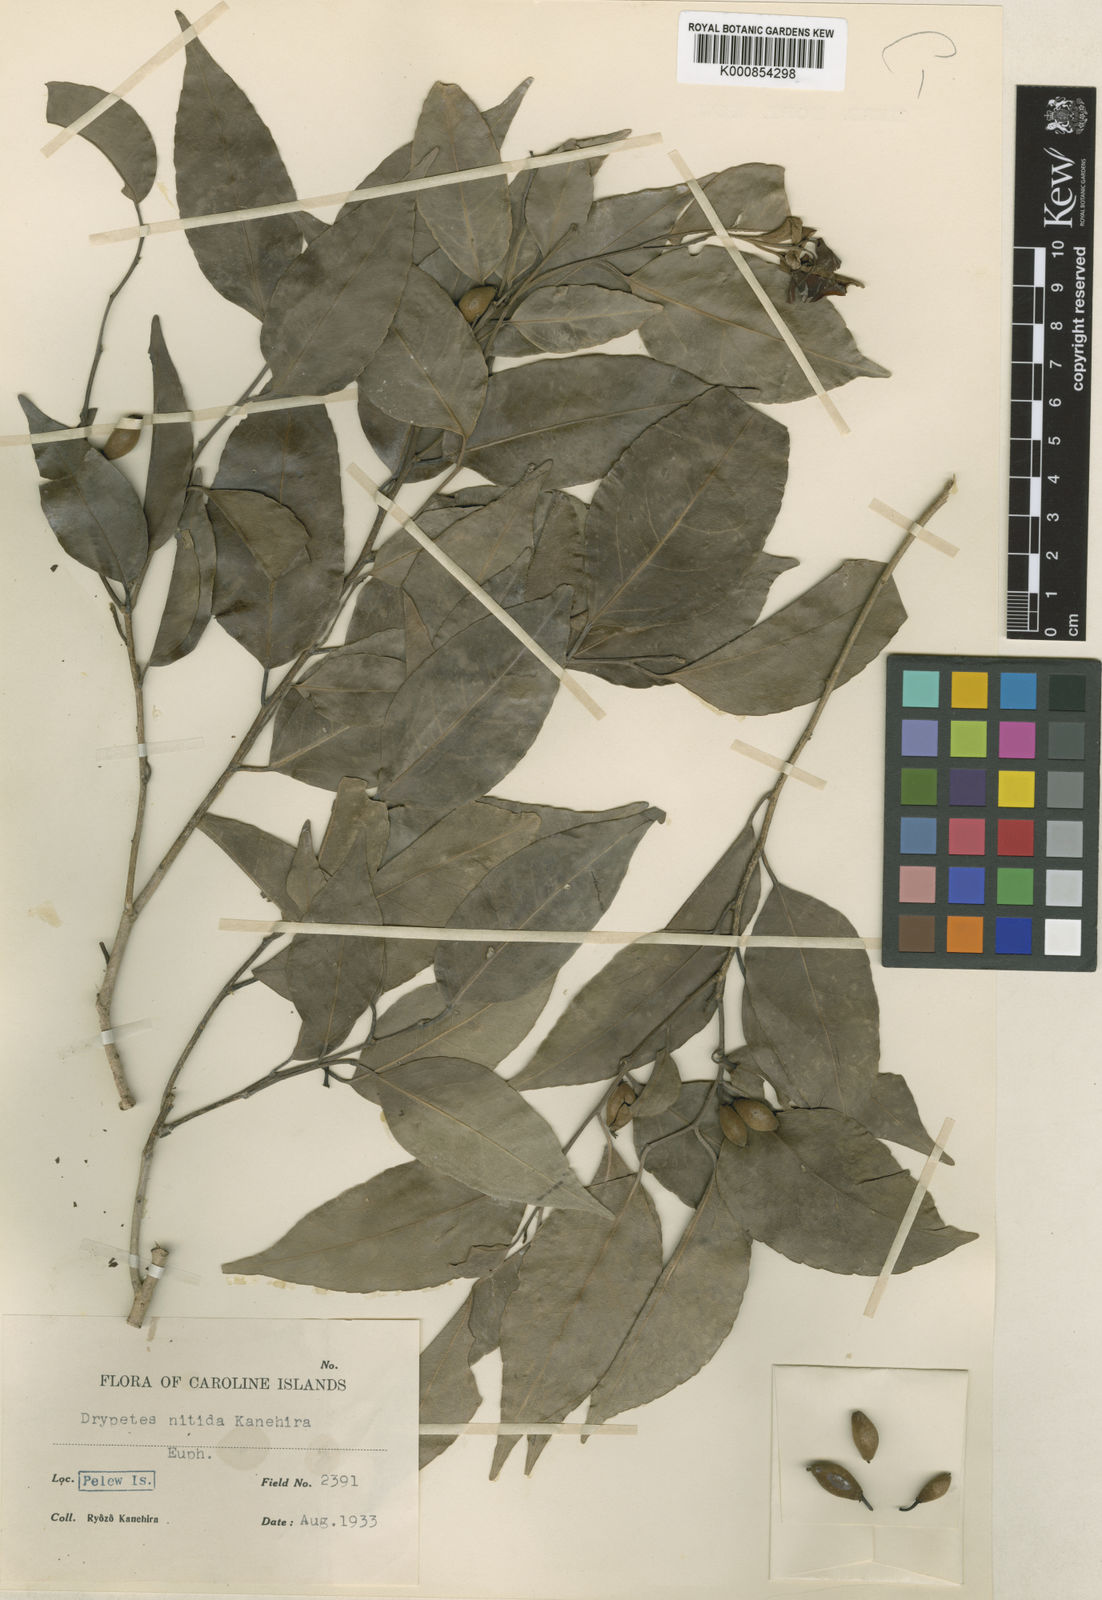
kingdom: Plantae
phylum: Tracheophyta
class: Magnoliopsida
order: Malpighiales
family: Putranjivaceae
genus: Drypetes
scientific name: Drypetes nitida
